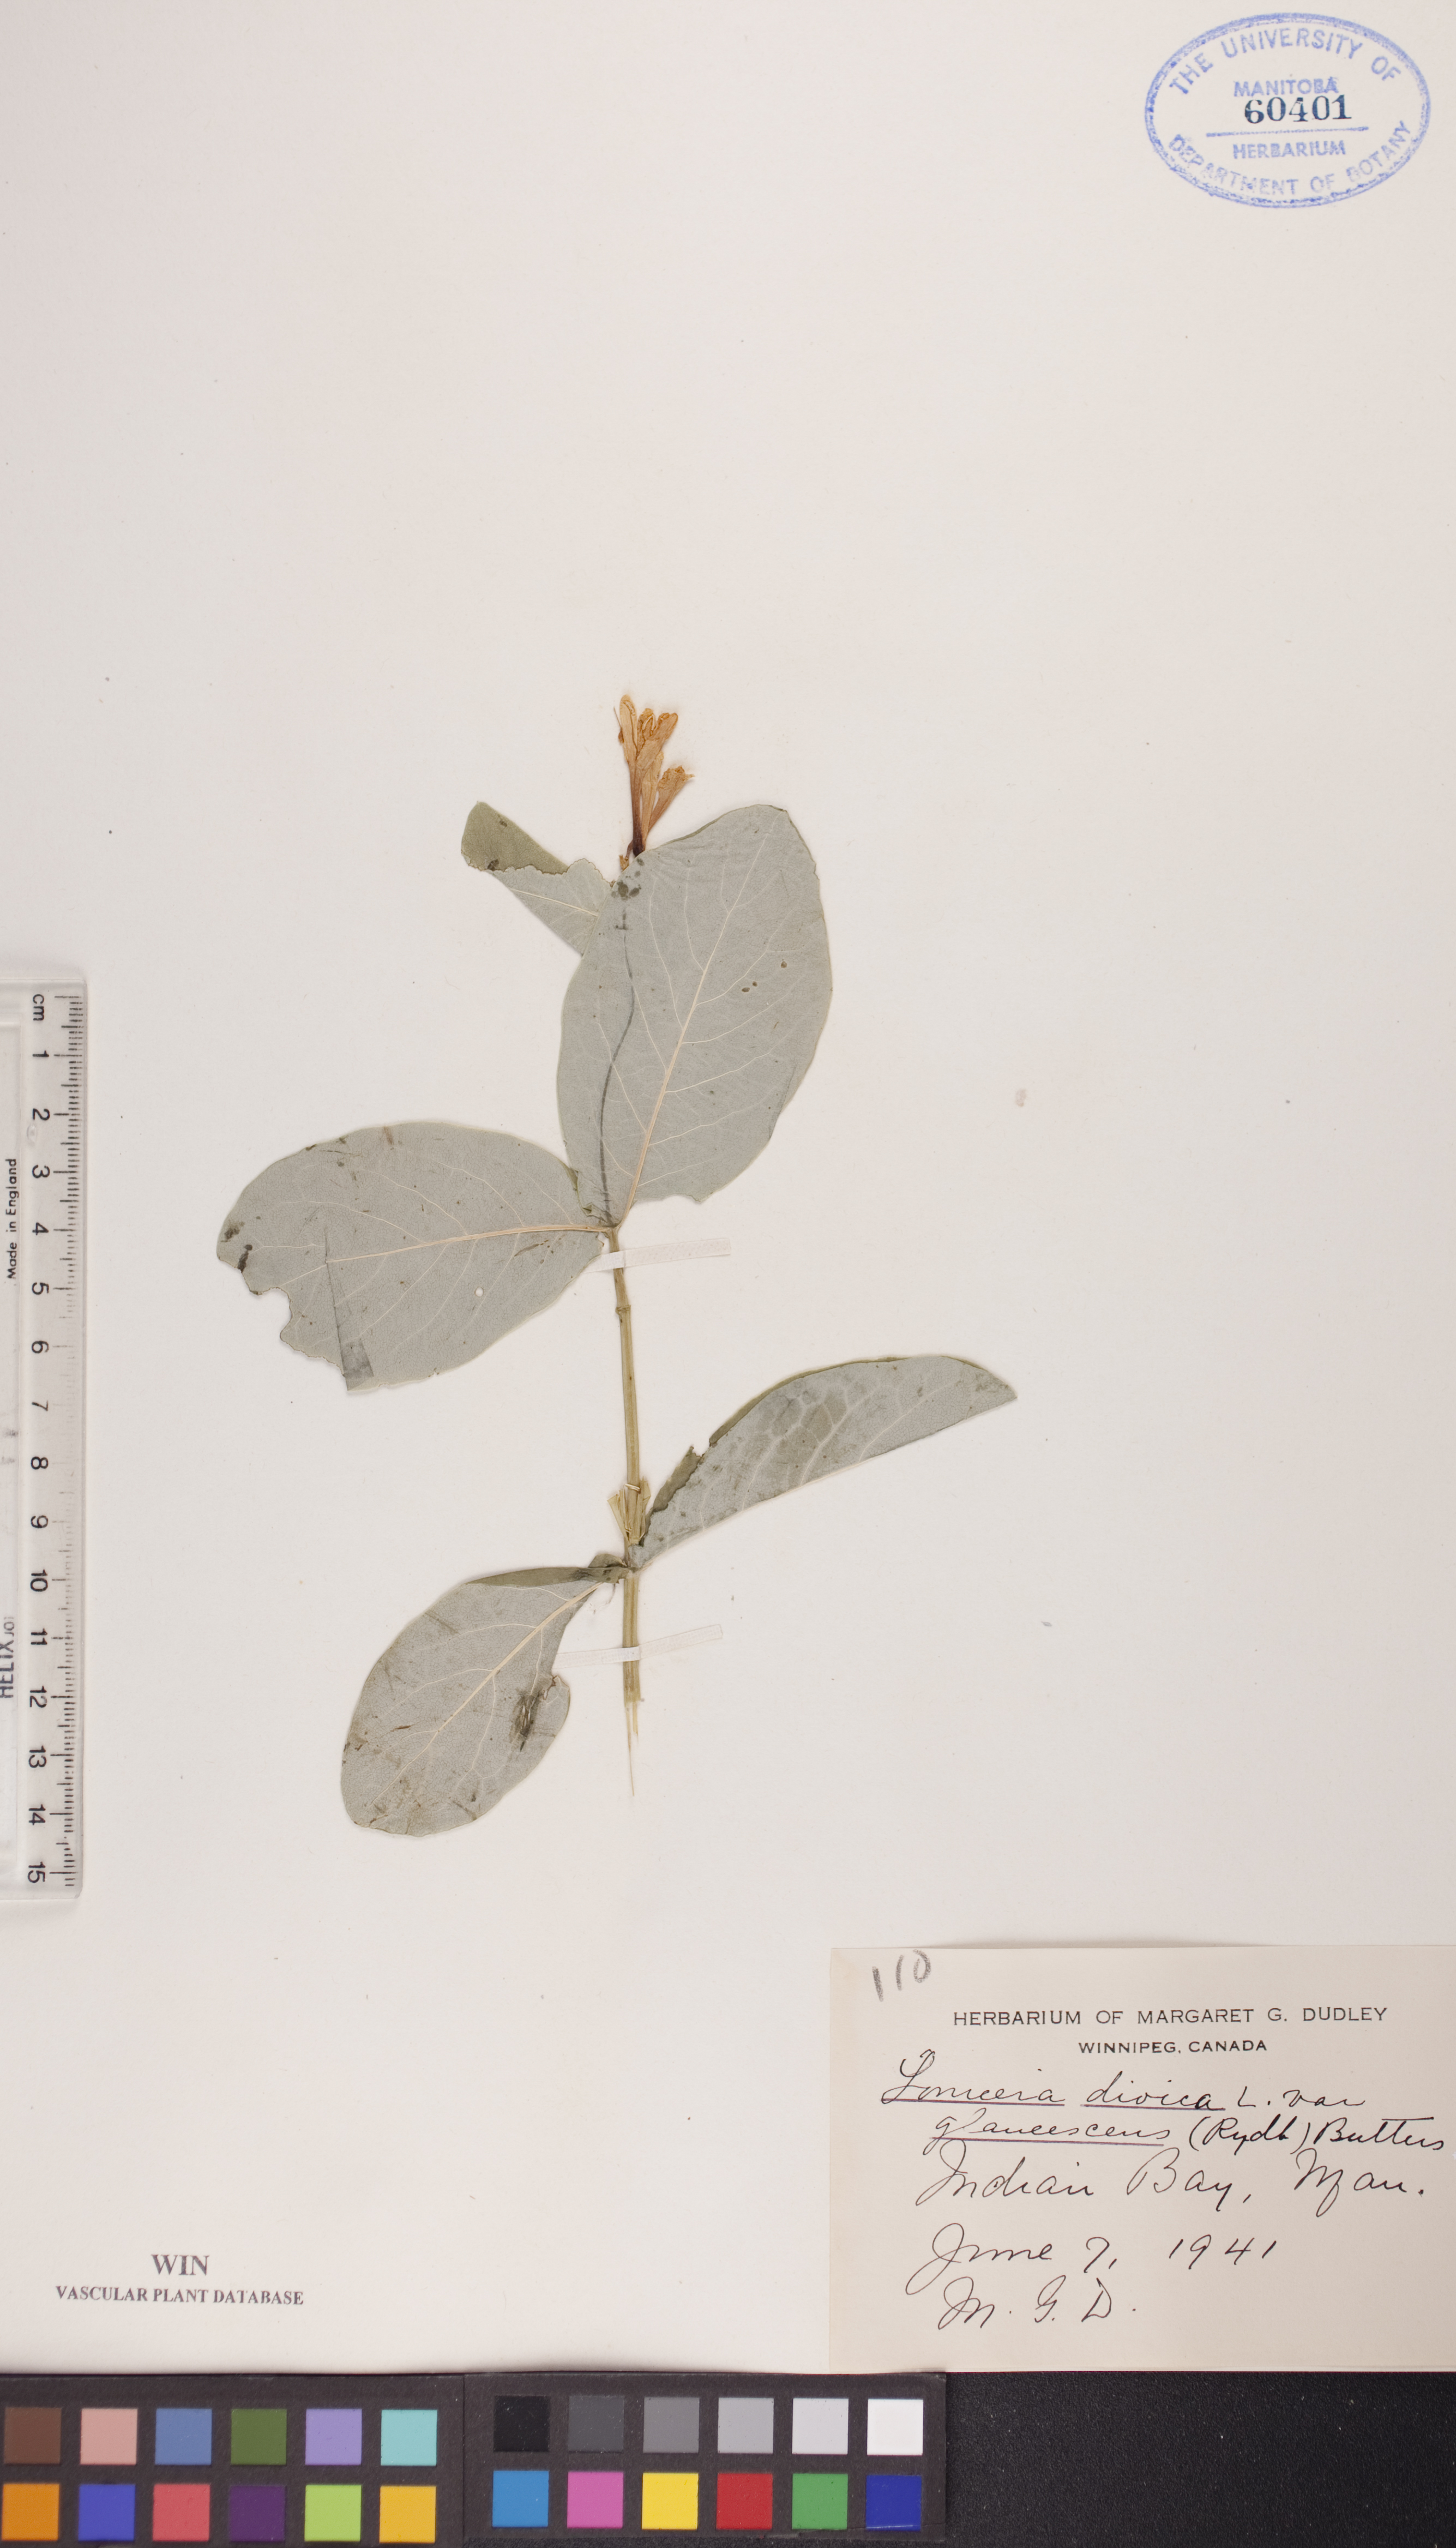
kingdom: Plantae
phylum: Tracheophyta
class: Magnoliopsida
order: Dipsacales
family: Caprifoliaceae
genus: Lonicera
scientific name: Lonicera dioica
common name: Limber honeysuckle
